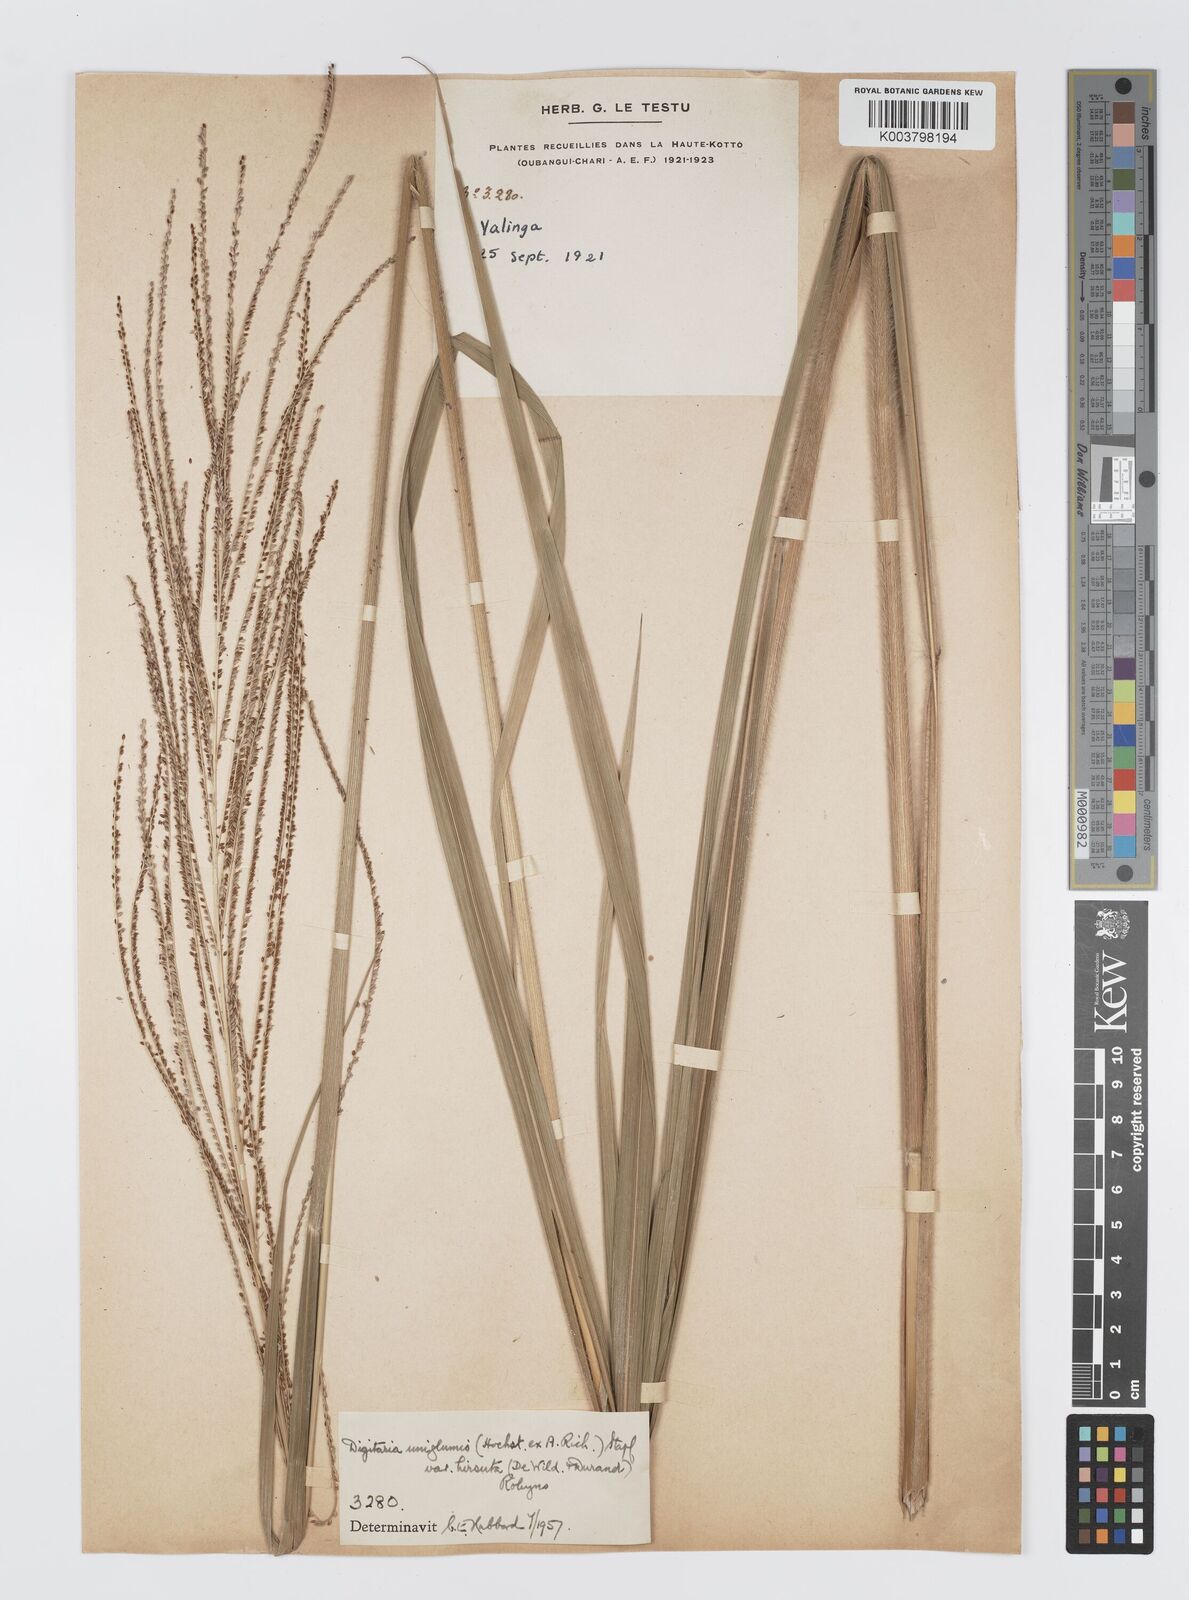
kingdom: Plantae
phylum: Tracheophyta
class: Liliopsida
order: Poales
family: Poaceae
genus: Digitaria
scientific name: Digitaria diagonalis
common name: Brown-seed finger grass
